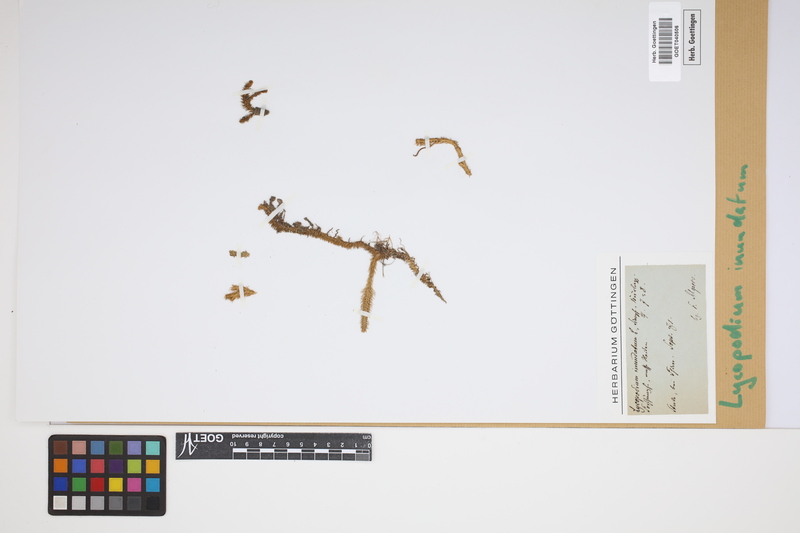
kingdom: Plantae
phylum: Tracheophyta
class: Lycopodiopsida
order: Lycopodiales
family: Lycopodiaceae
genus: Lycopodiella
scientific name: Lycopodiella inundata
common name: Marsh clubmoss
